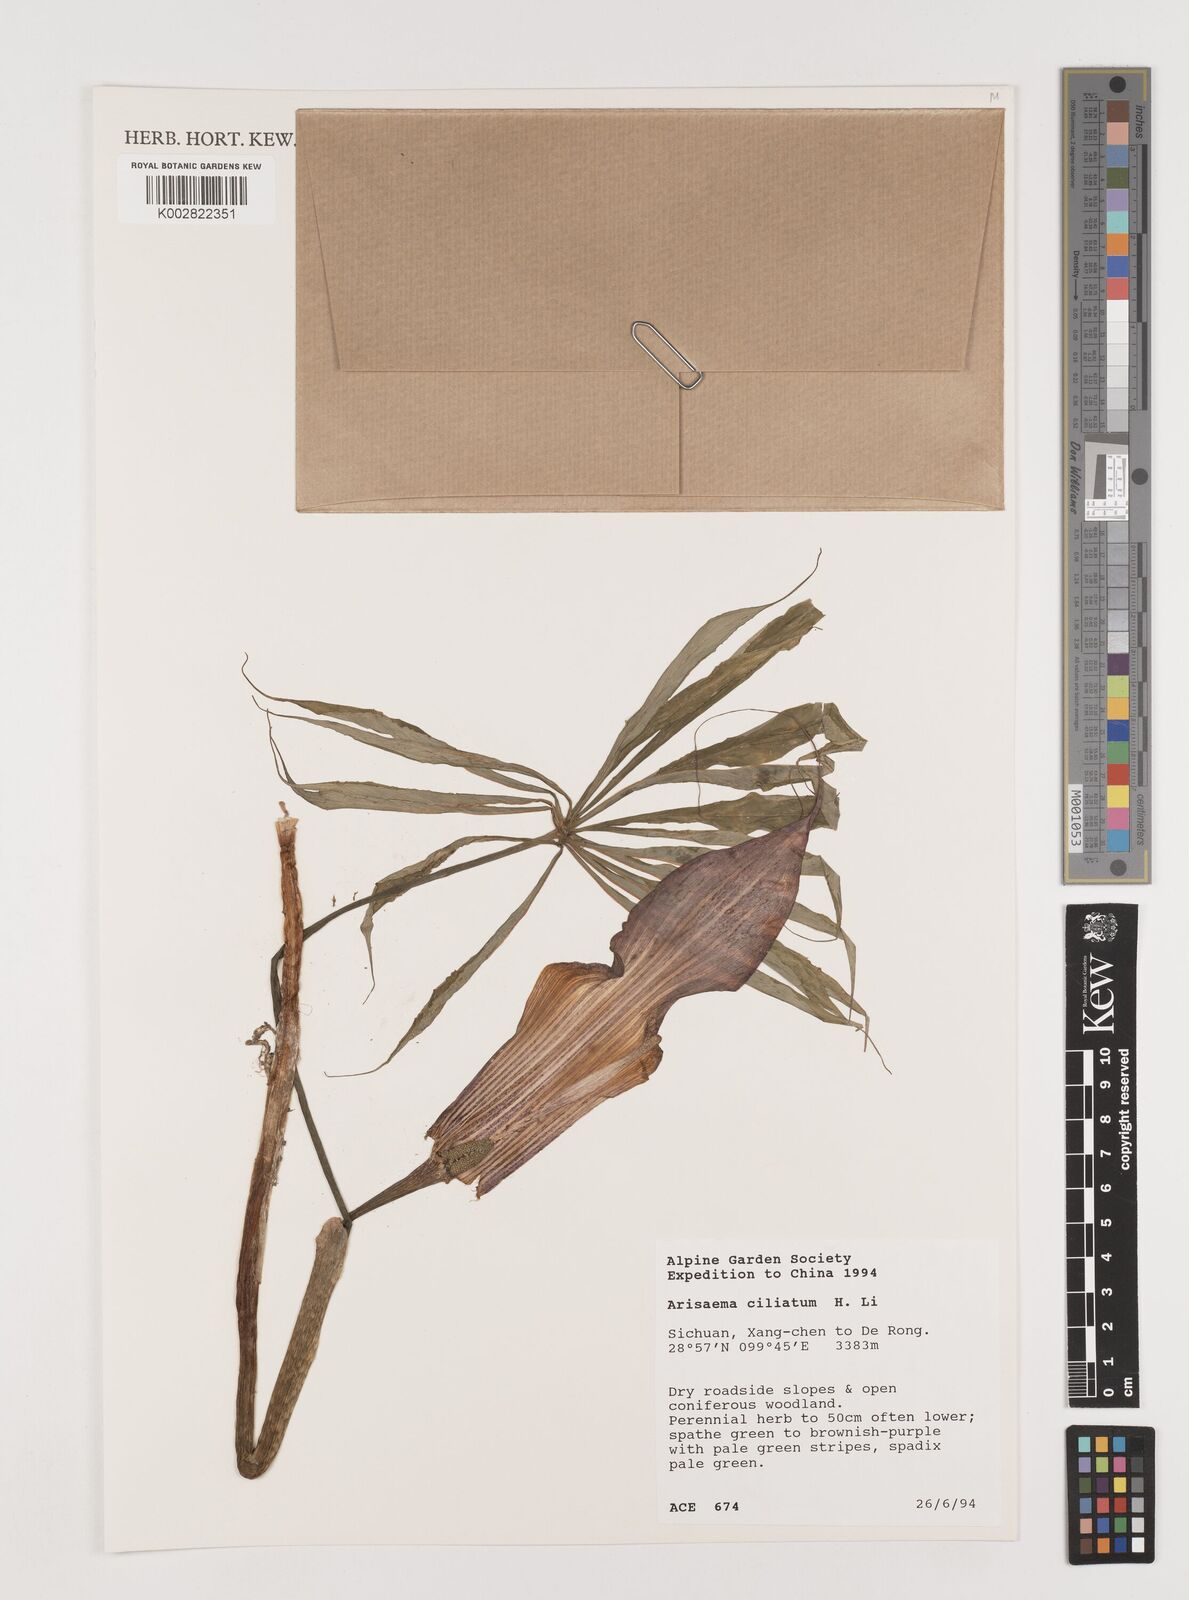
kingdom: Plantae
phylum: Tracheophyta
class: Liliopsida
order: Alismatales
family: Araceae
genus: Arisaema
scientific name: Arisaema ciliatum
